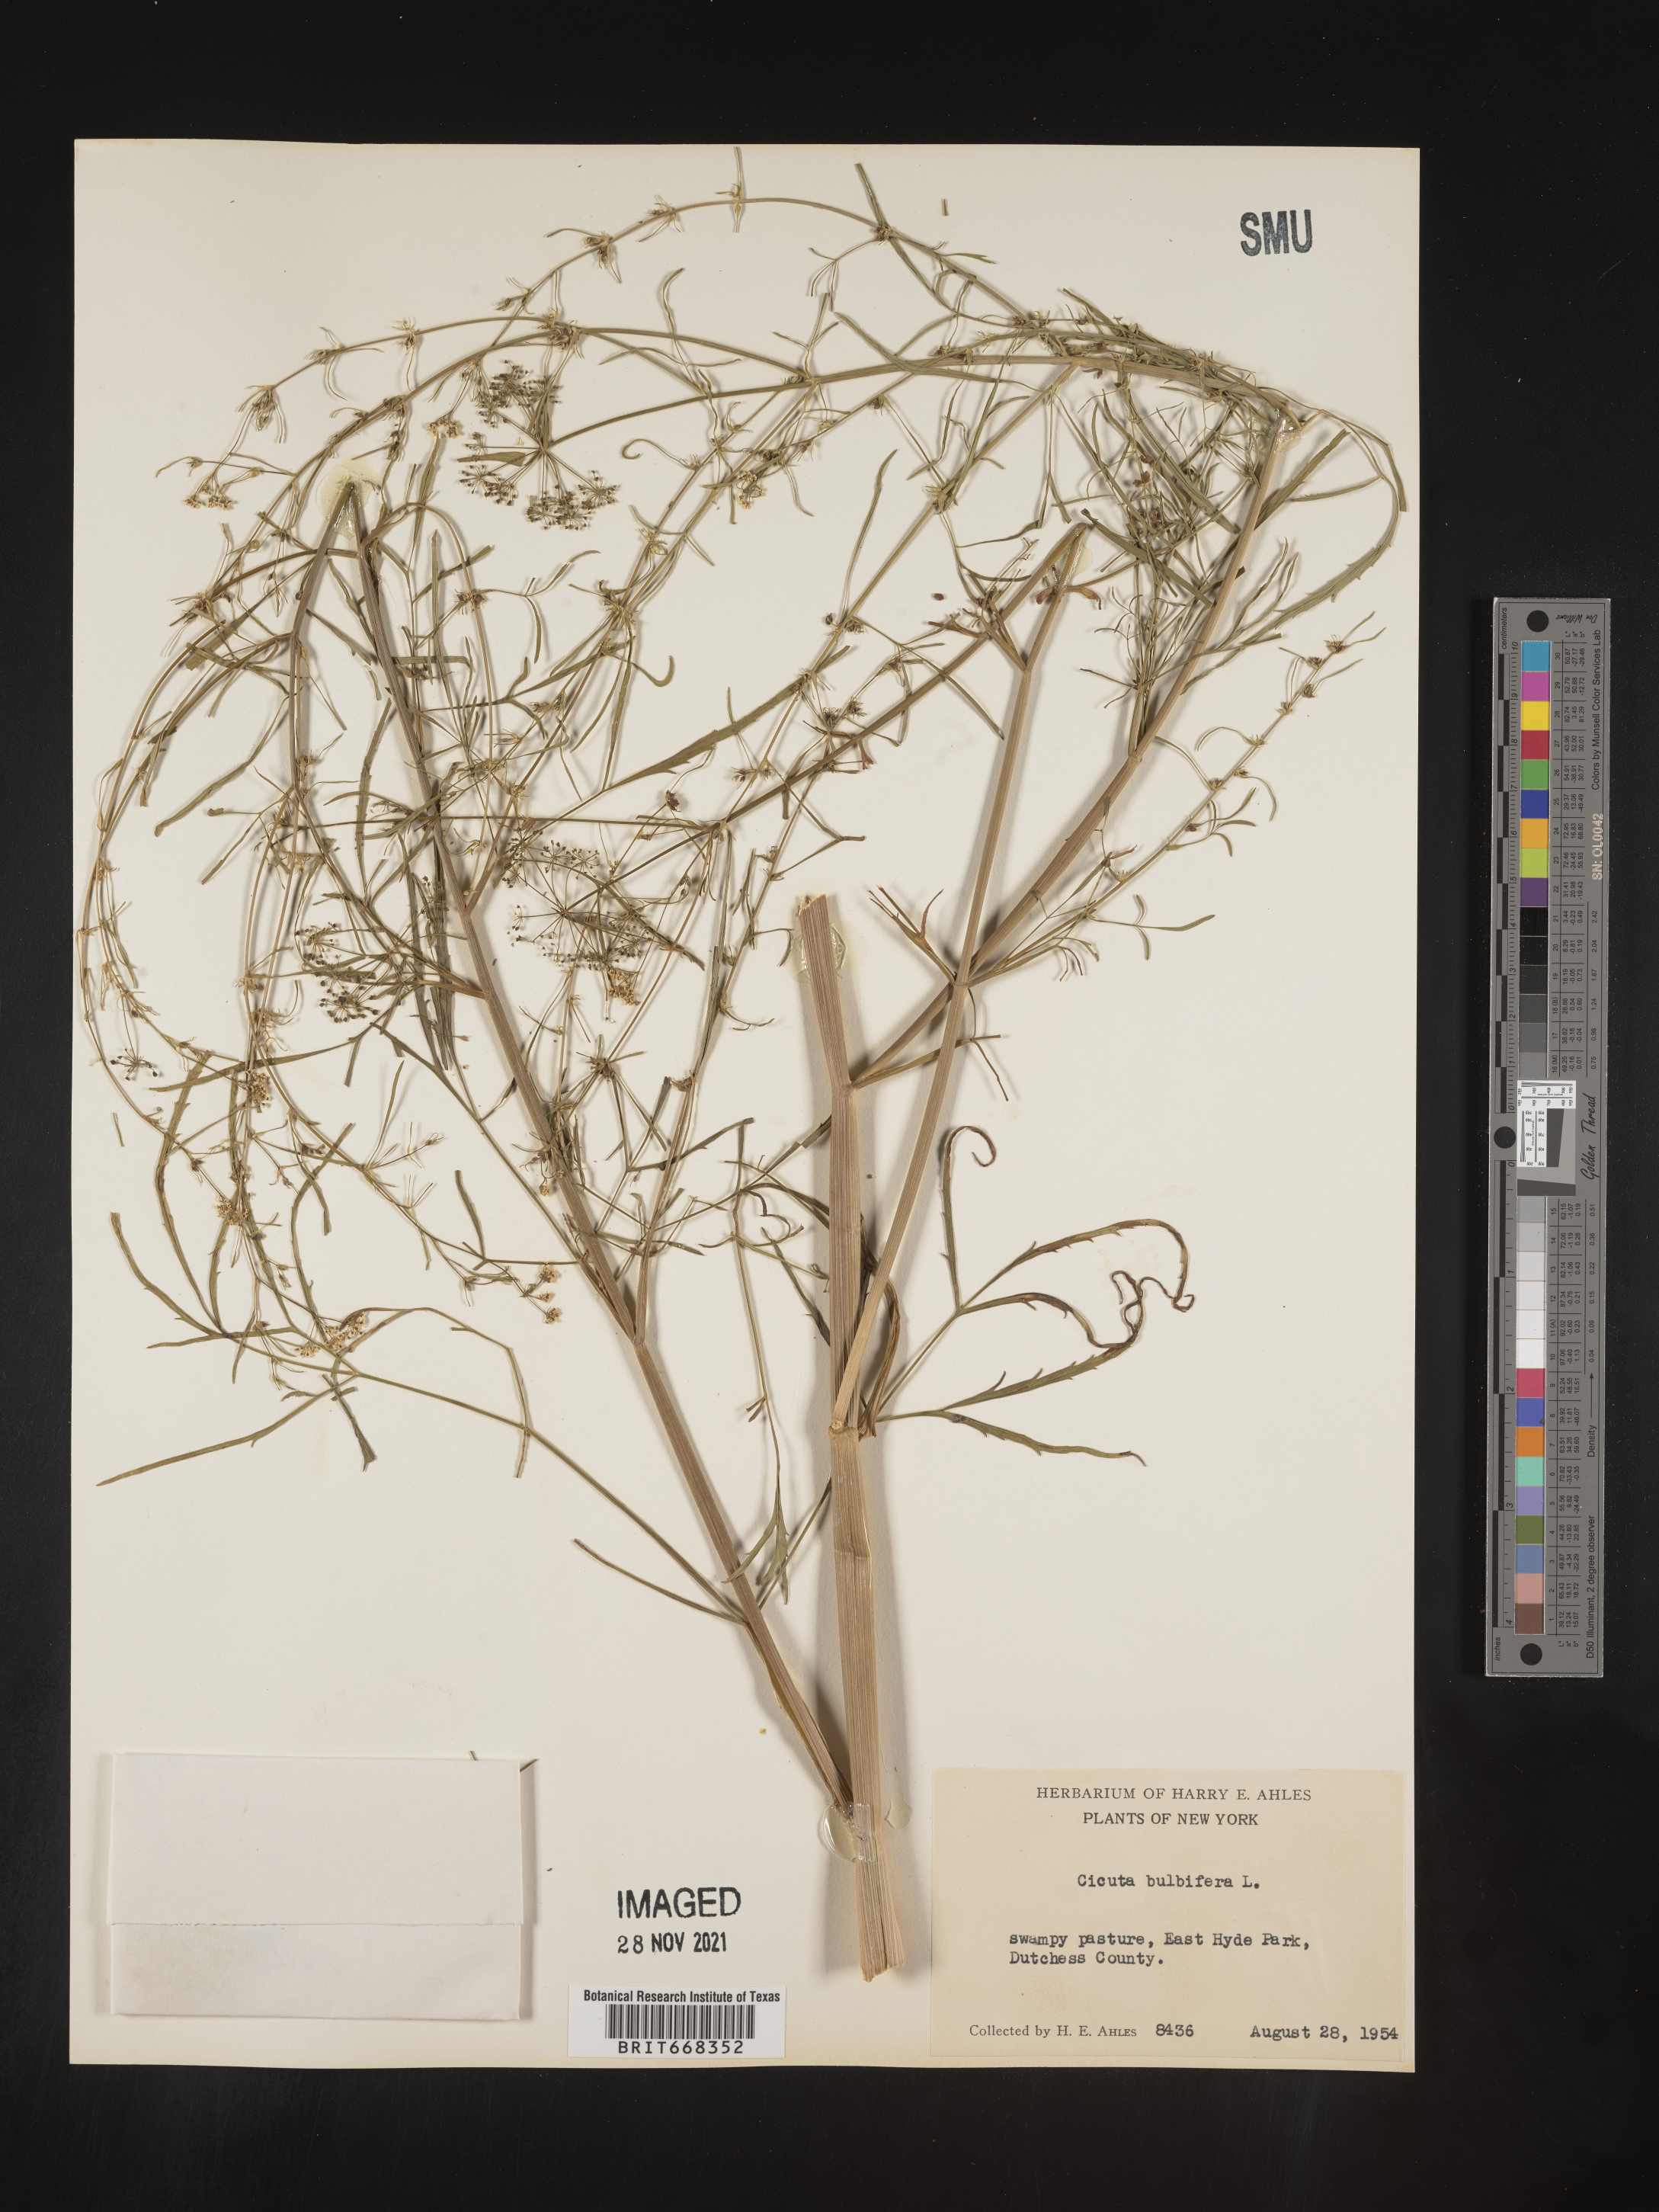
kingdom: Plantae
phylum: Tracheophyta
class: Magnoliopsida
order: Apiales
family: Apiaceae
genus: Cicuta
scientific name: Cicuta
